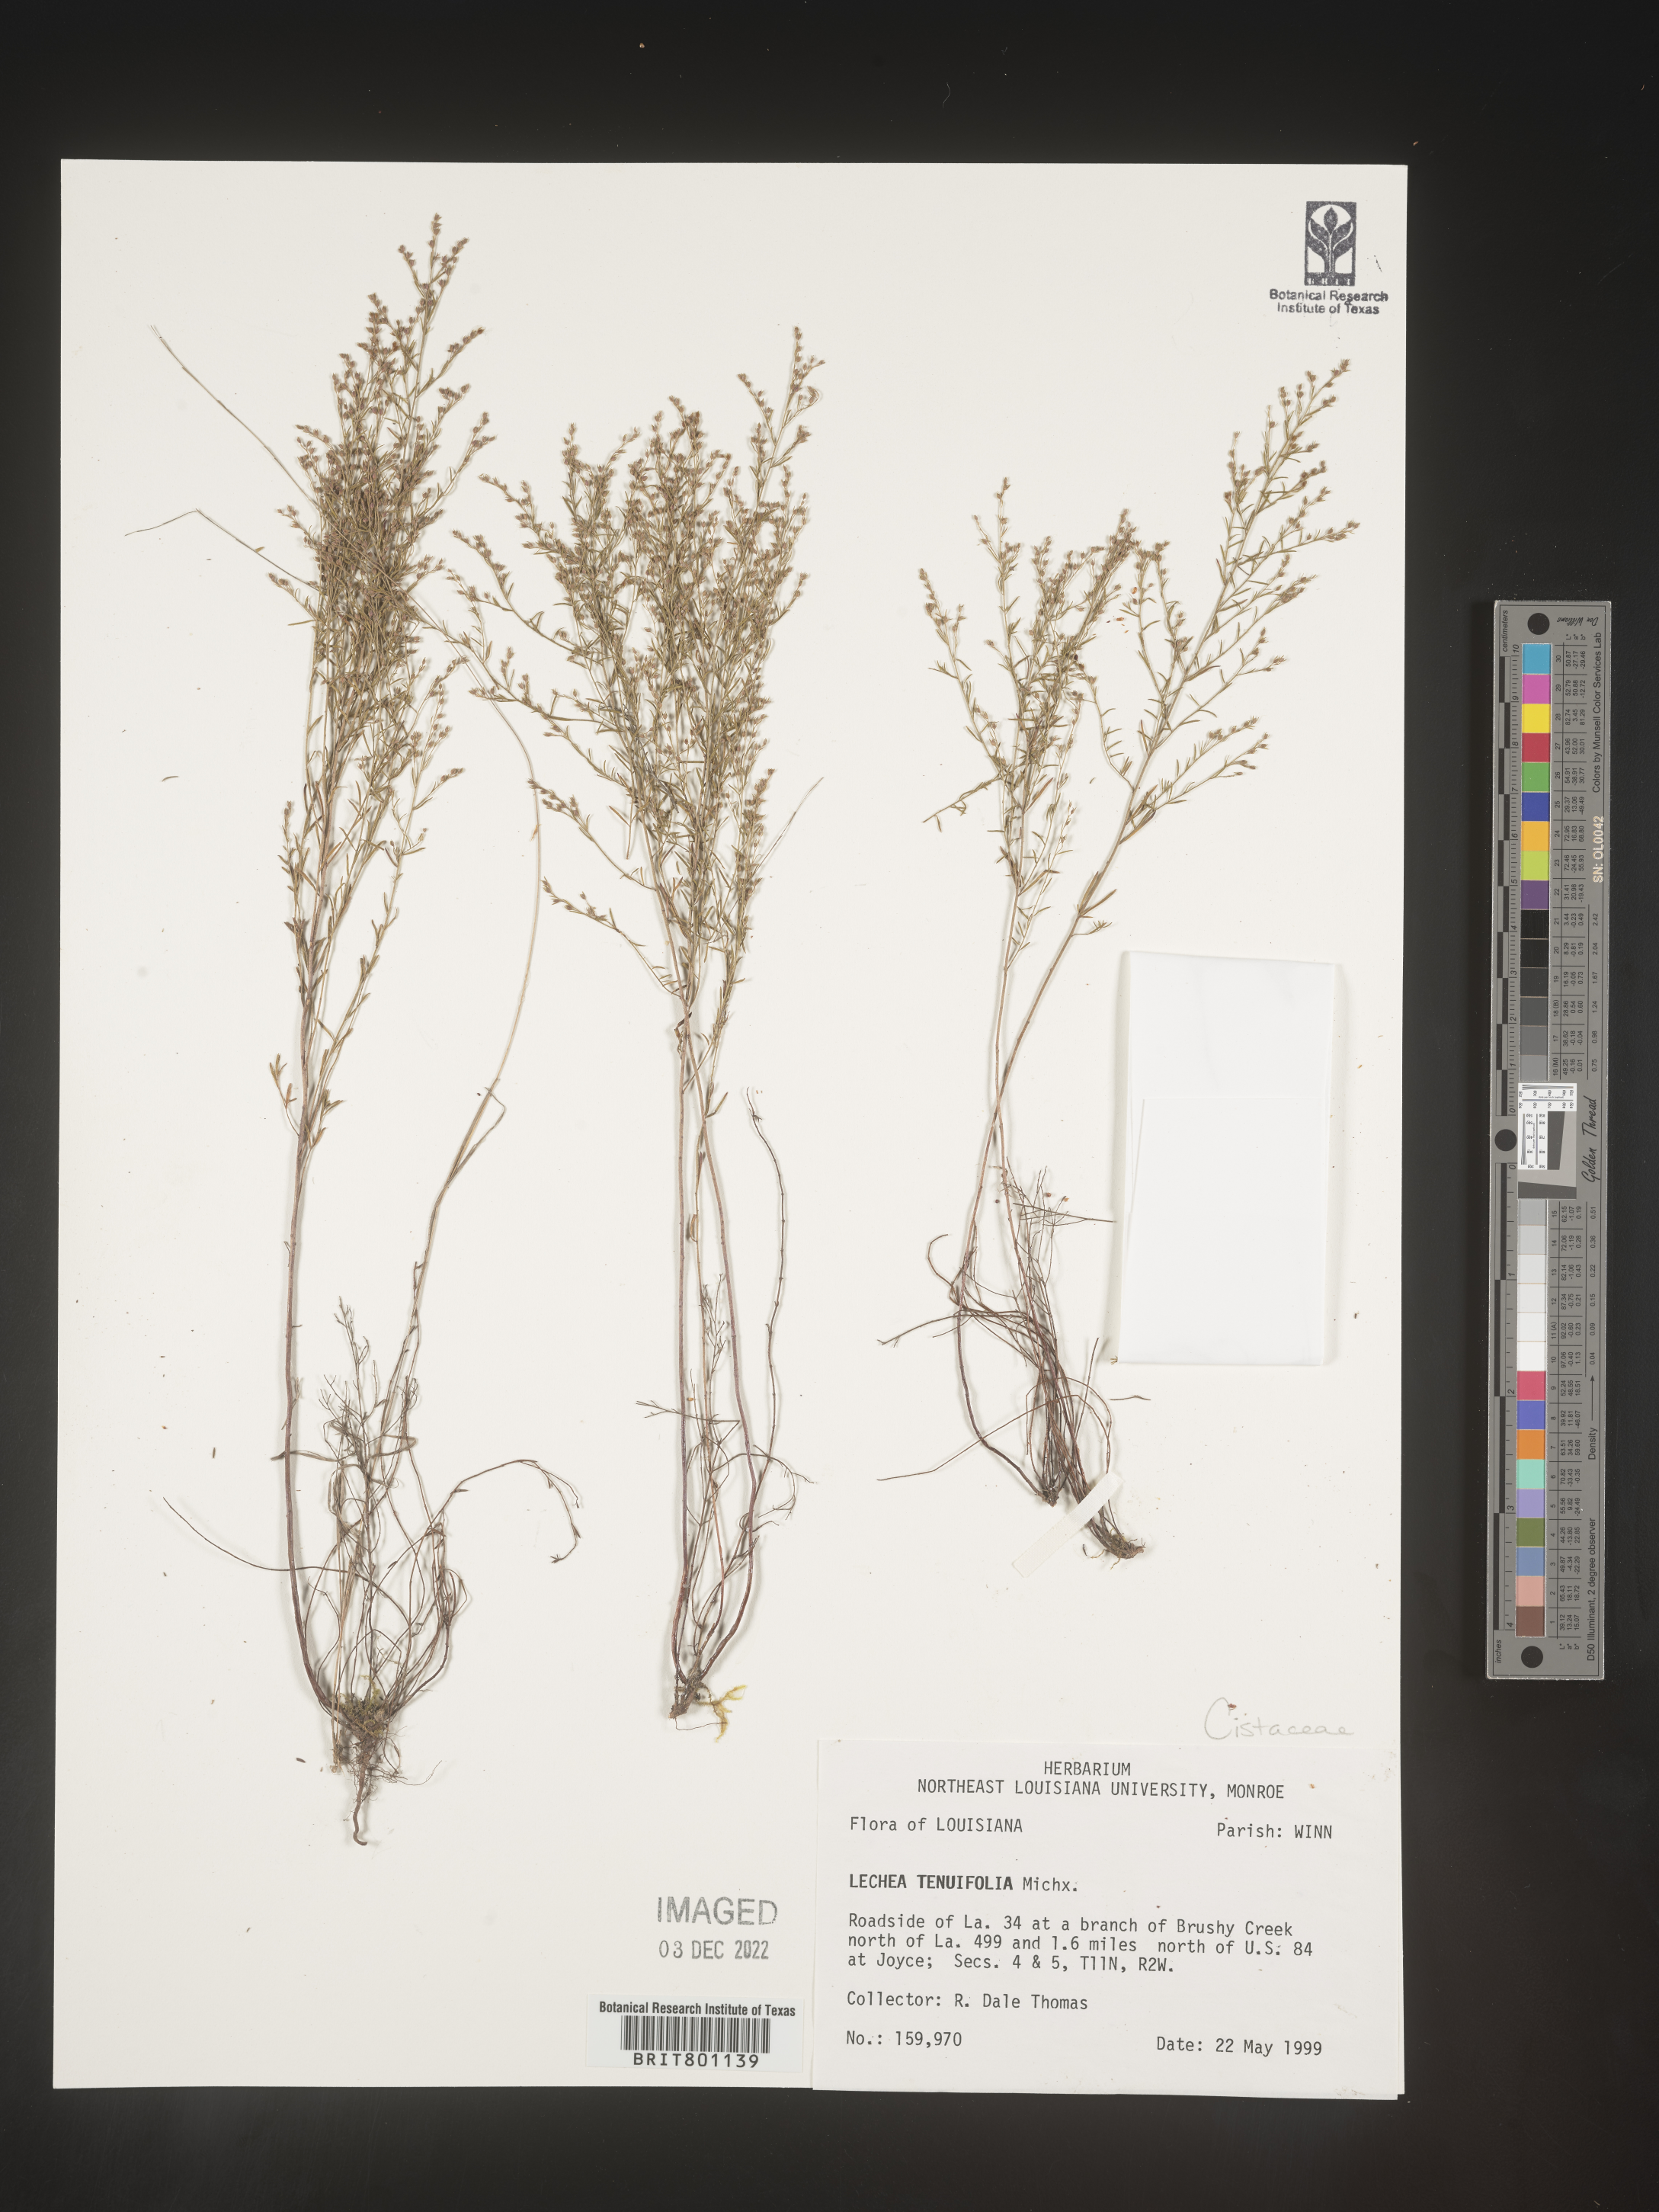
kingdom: Plantae
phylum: Tracheophyta
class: Magnoliopsida
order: Malvales
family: Cistaceae
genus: Lechea
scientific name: Lechea tenuifolia
